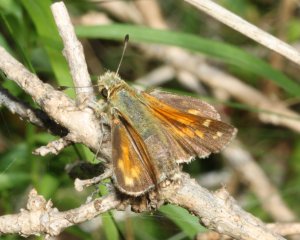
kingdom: Animalia
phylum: Arthropoda
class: Insecta
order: Lepidoptera
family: Hesperiidae
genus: Hesperia
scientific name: Hesperia comma
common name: Common Branded Skipper
